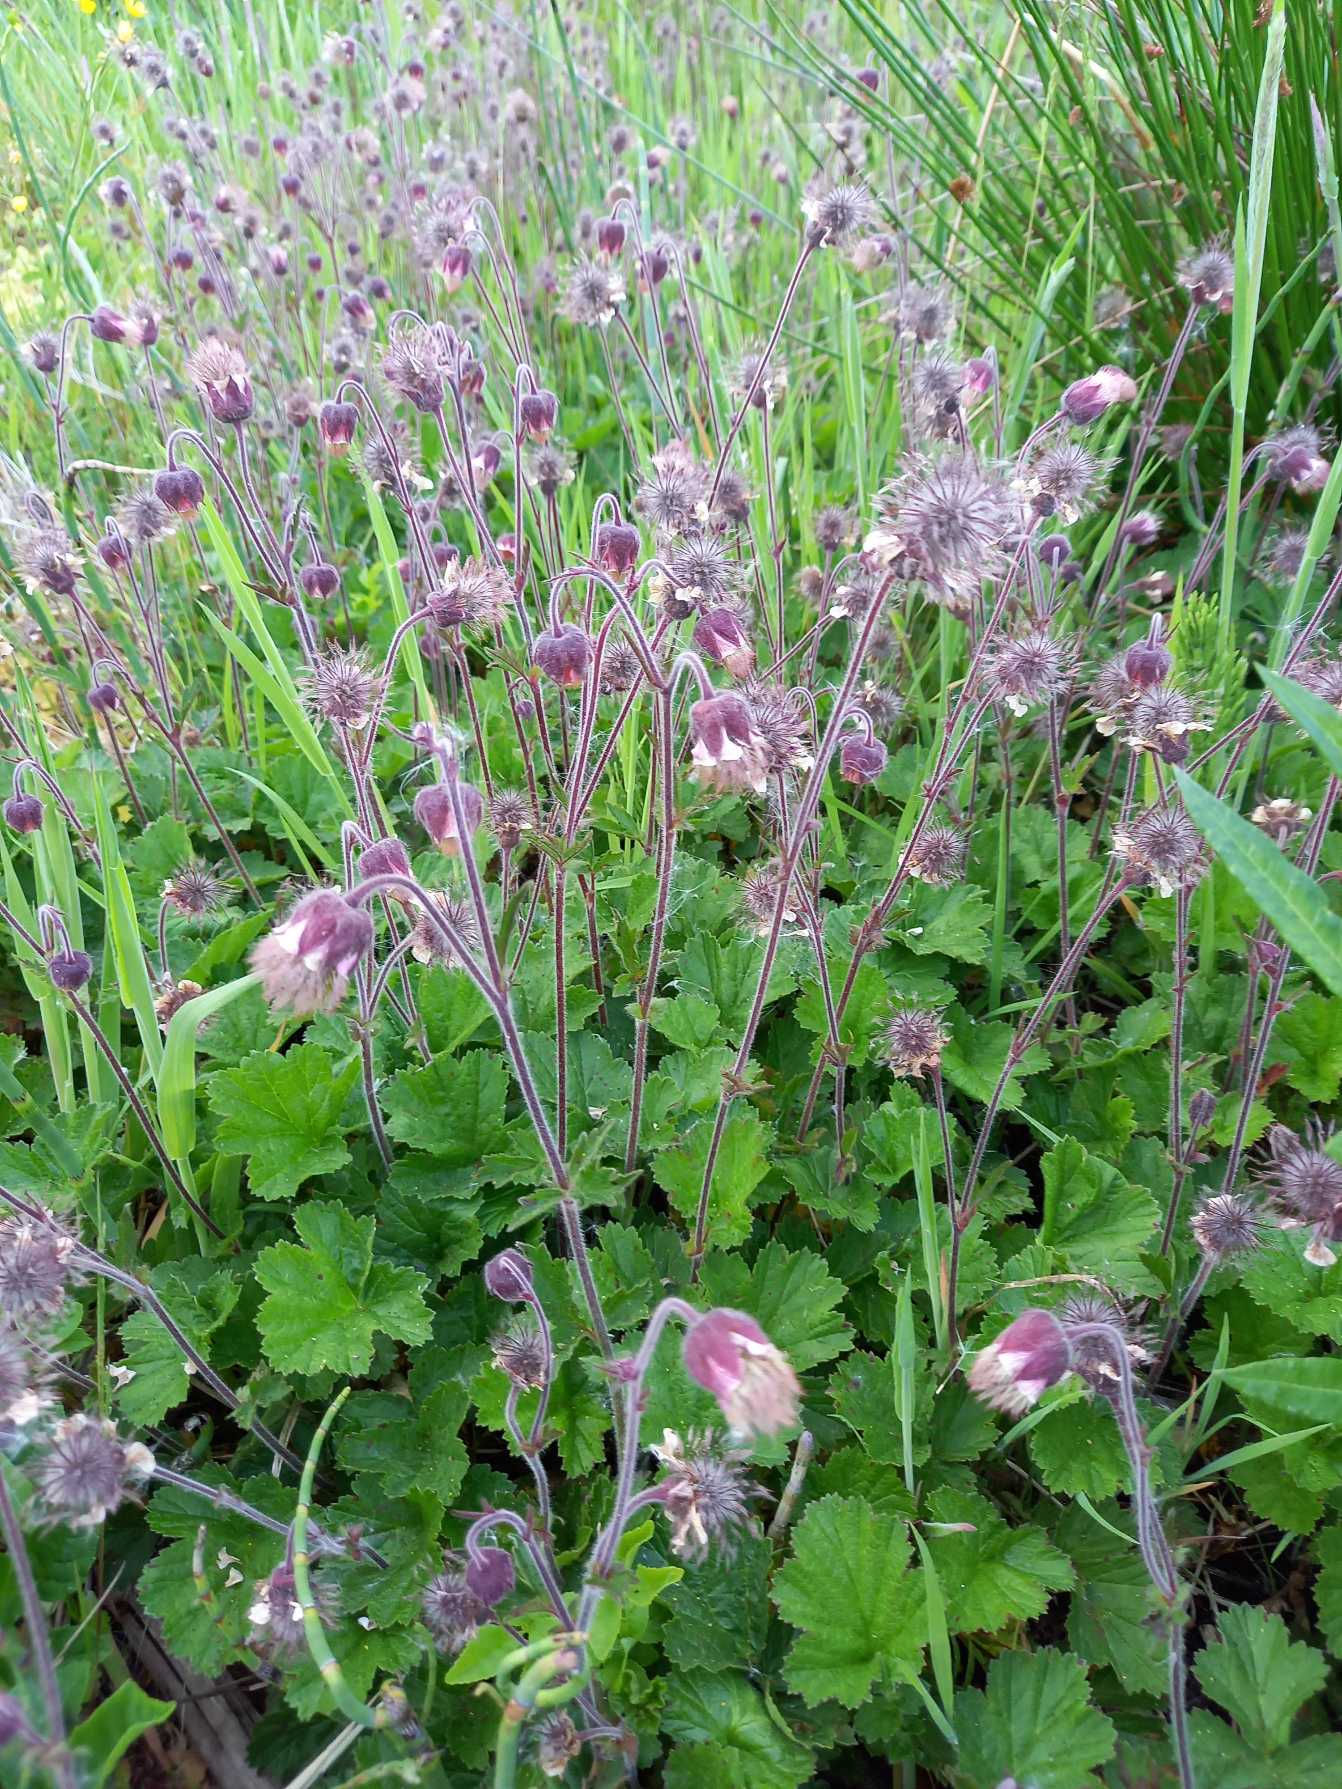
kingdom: Plantae
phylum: Tracheophyta
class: Magnoliopsida
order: Rosales
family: Rosaceae
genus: Geum
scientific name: Geum rivale
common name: Eng-nellikerod
